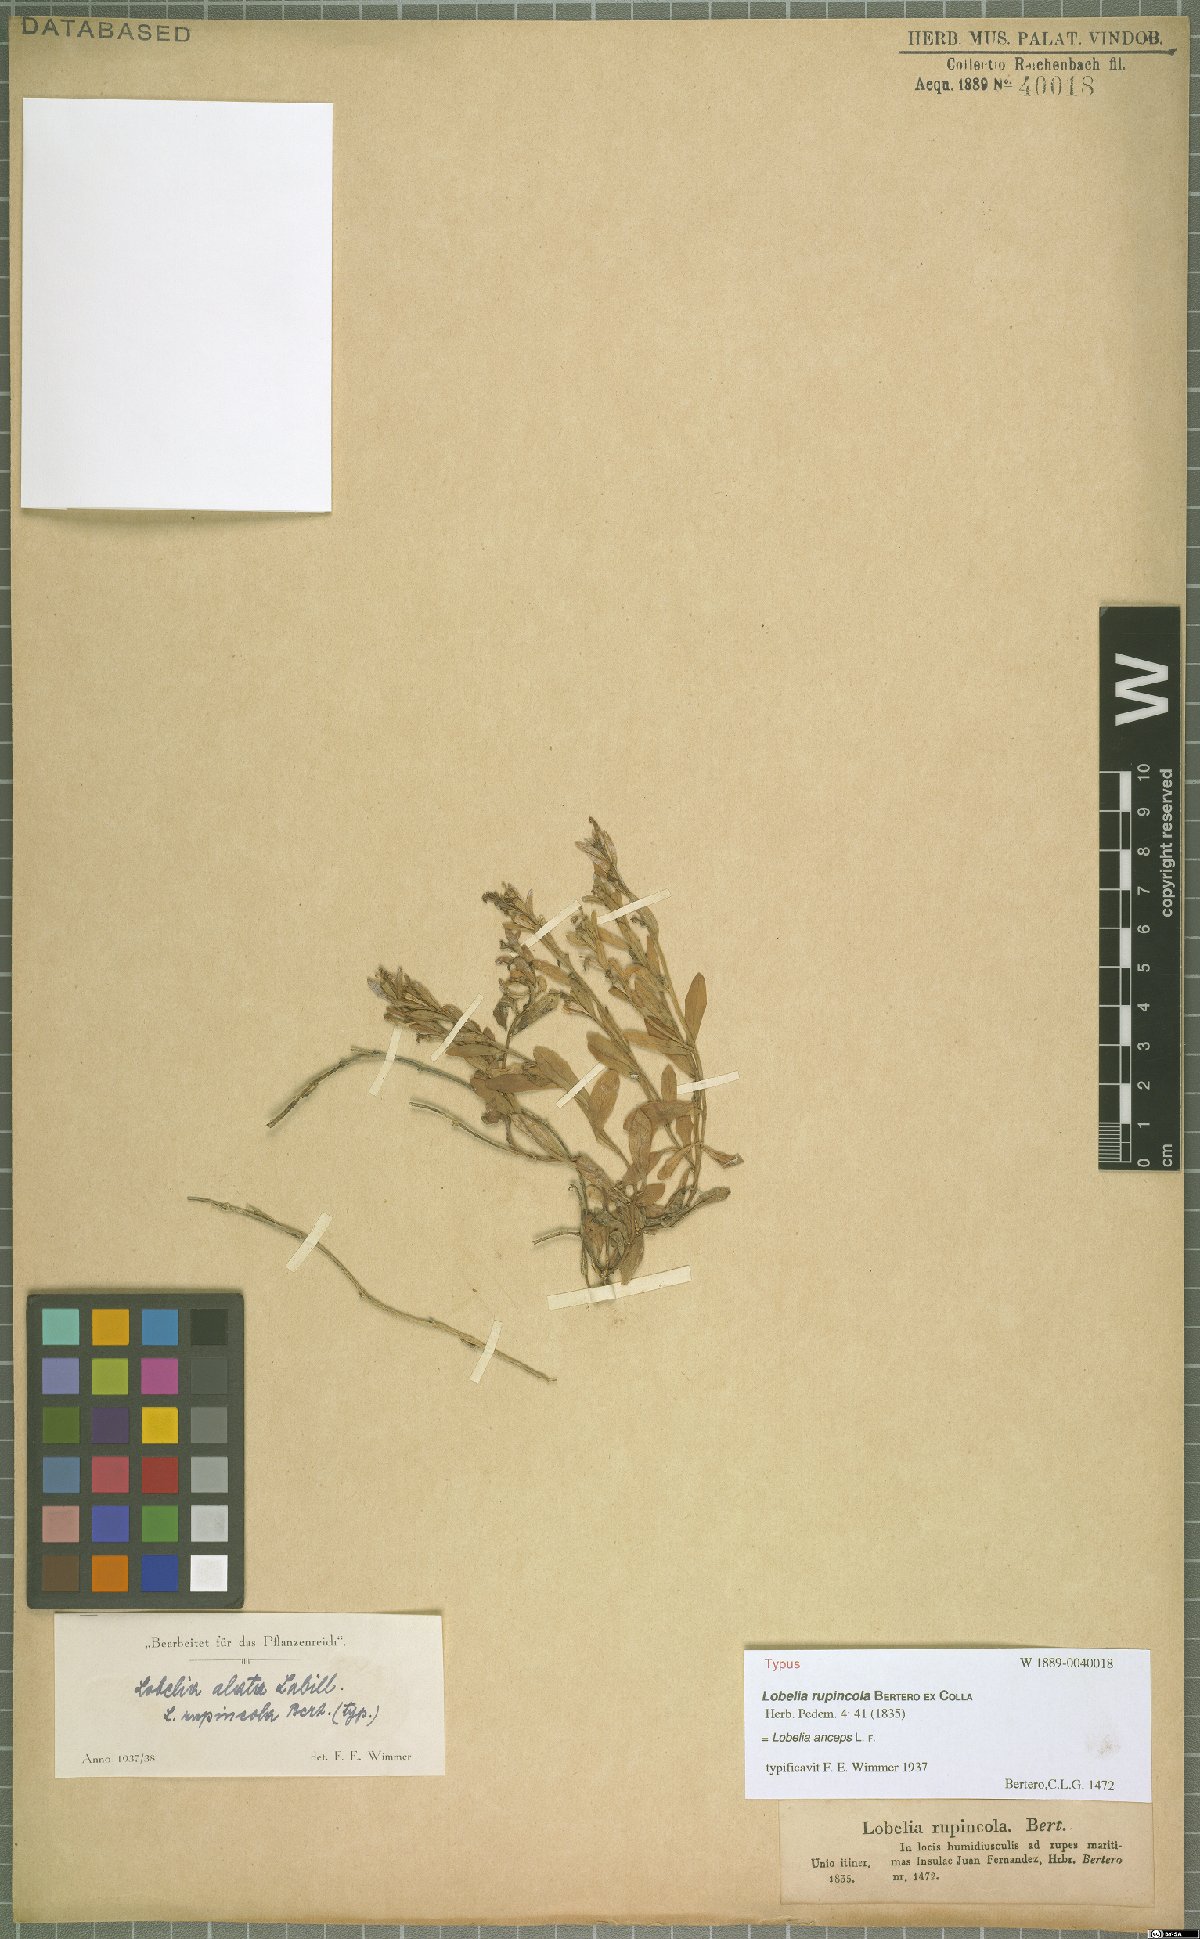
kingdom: Plantae
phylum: Tracheophyta
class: Magnoliopsida
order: Asterales
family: Campanulaceae
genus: Lobelia
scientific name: Lobelia anceps
